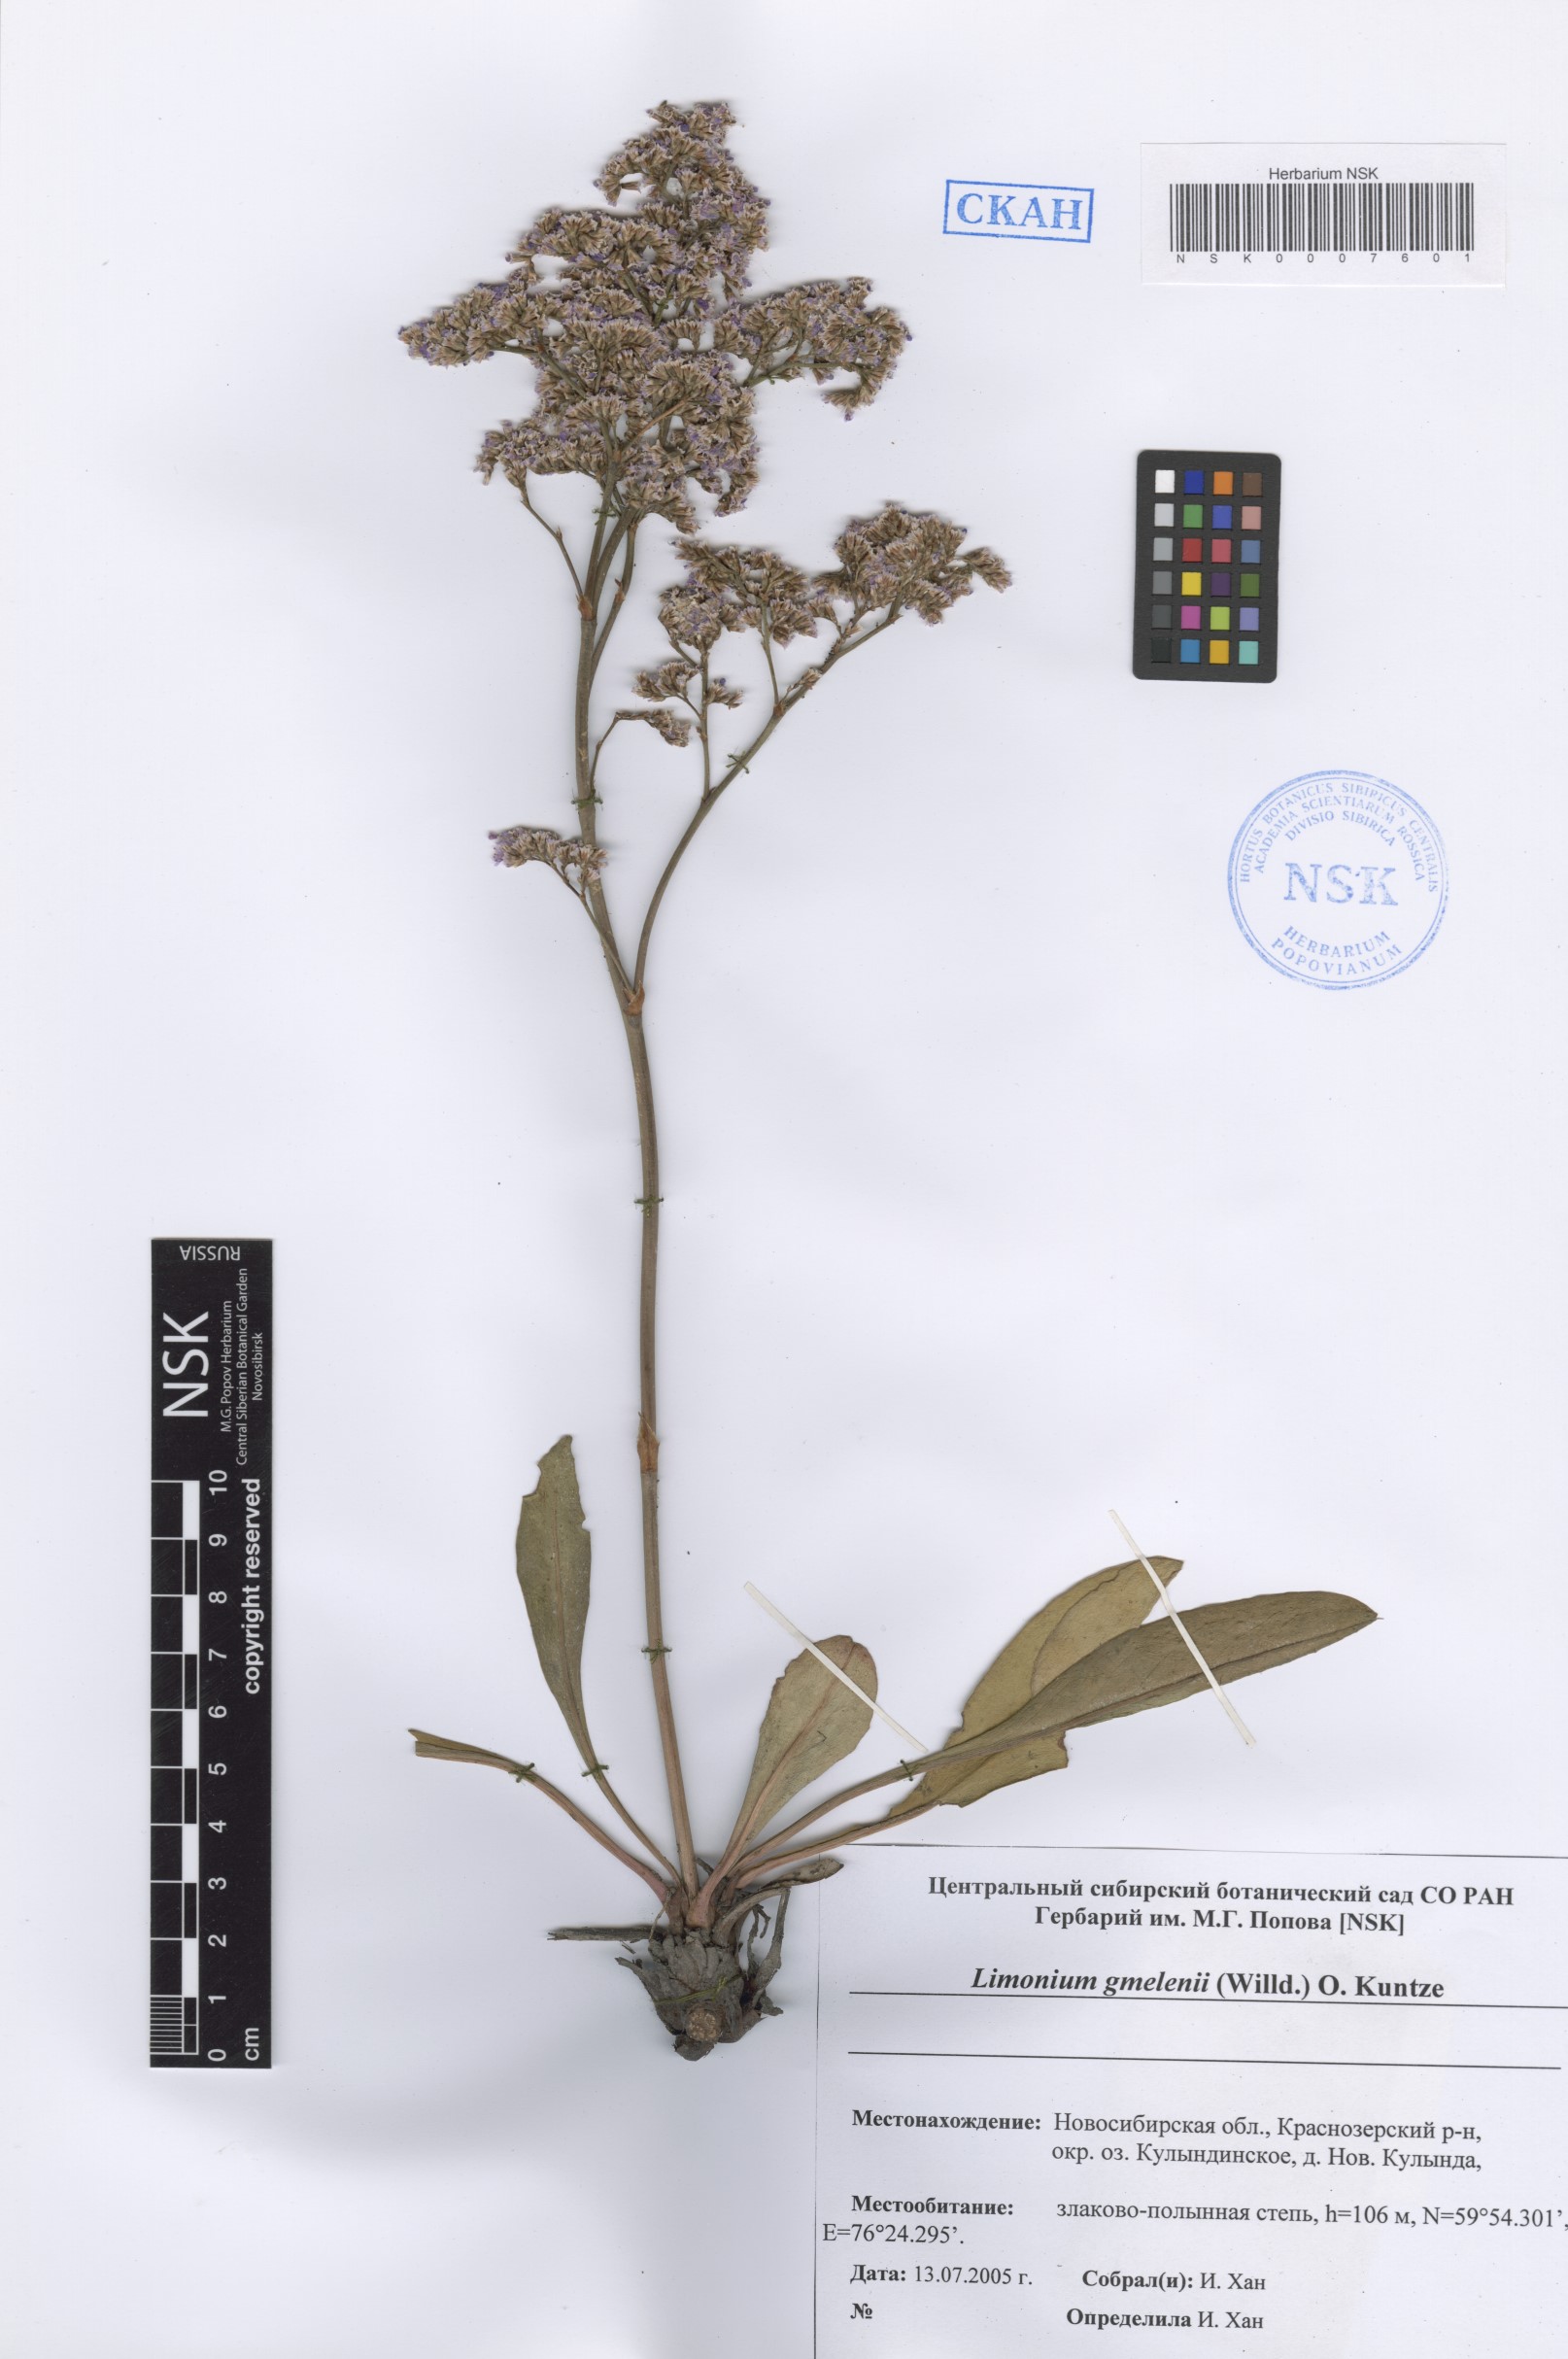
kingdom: Plantae
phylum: Tracheophyta
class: Magnoliopsida
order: Caryophyllales
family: Plumbaginaceae
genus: Limonium
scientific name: Limonium gmelini
